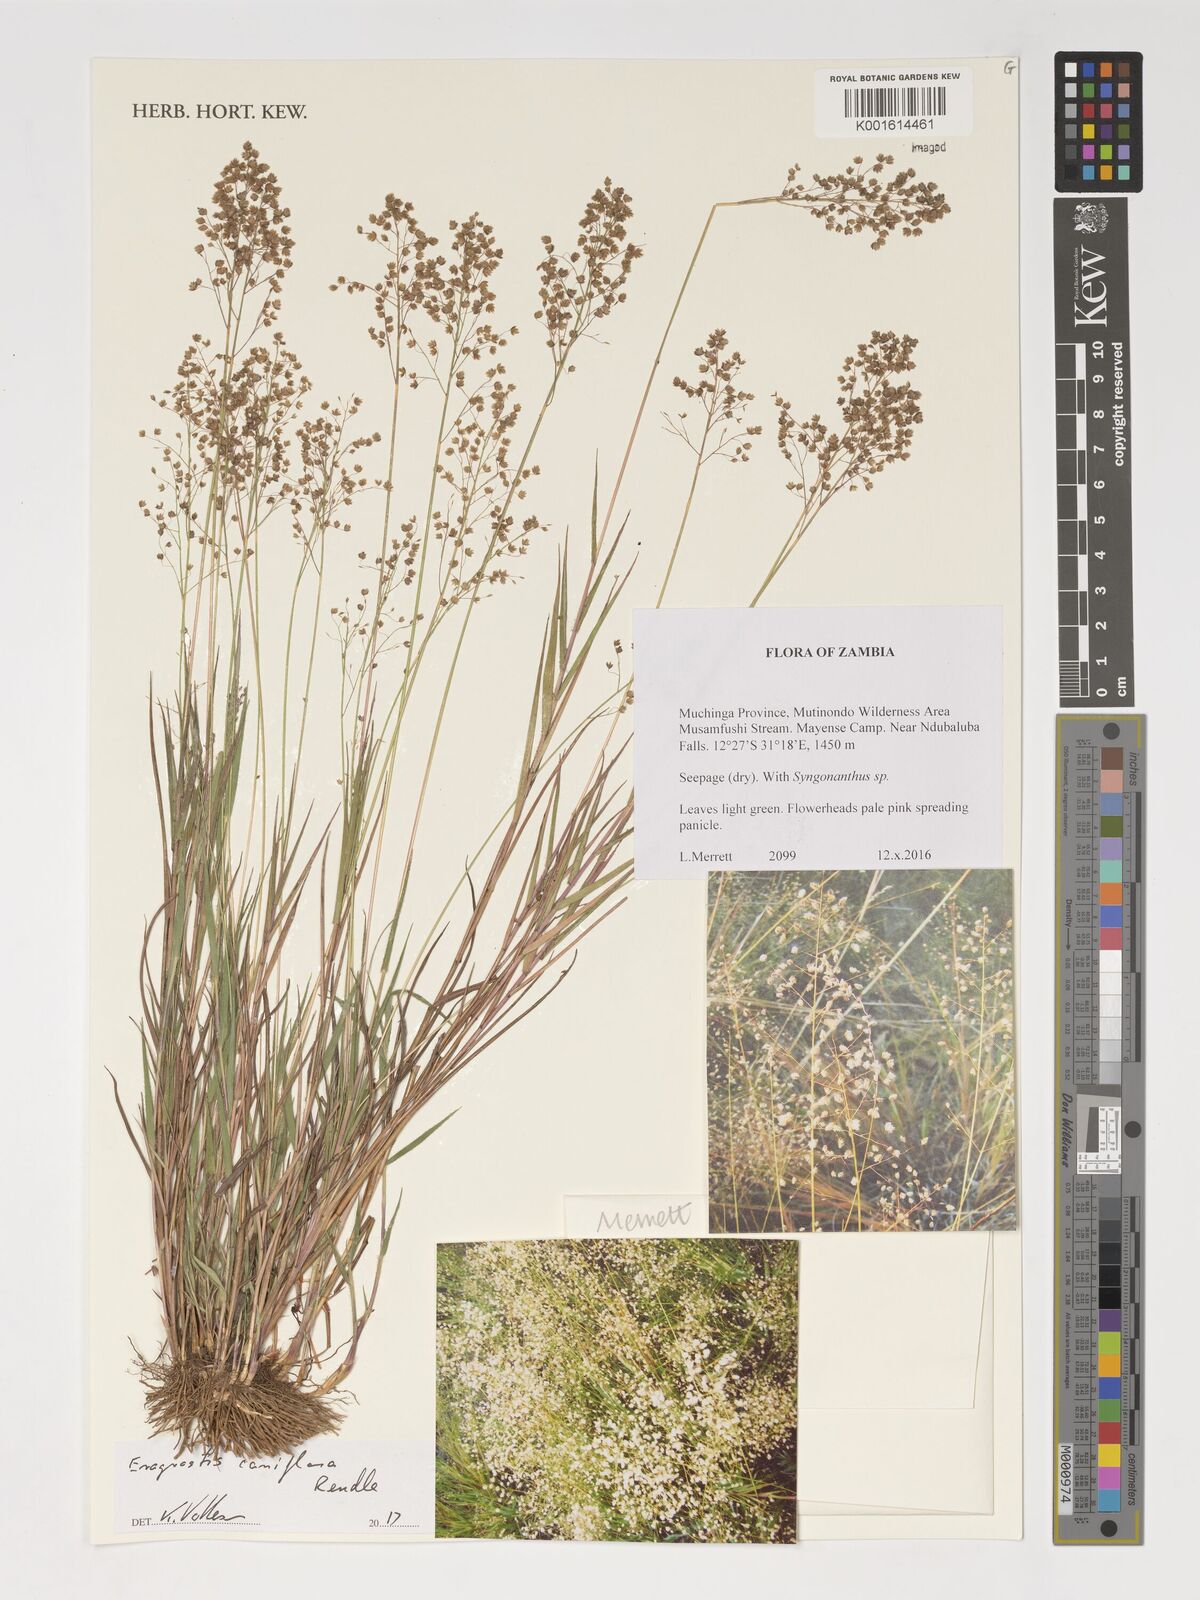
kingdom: Plantae
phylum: Tracheophyta
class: Liliopsida
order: Poales
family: Poaceae
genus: Eragrostis
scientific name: Eragrostis caniflora
